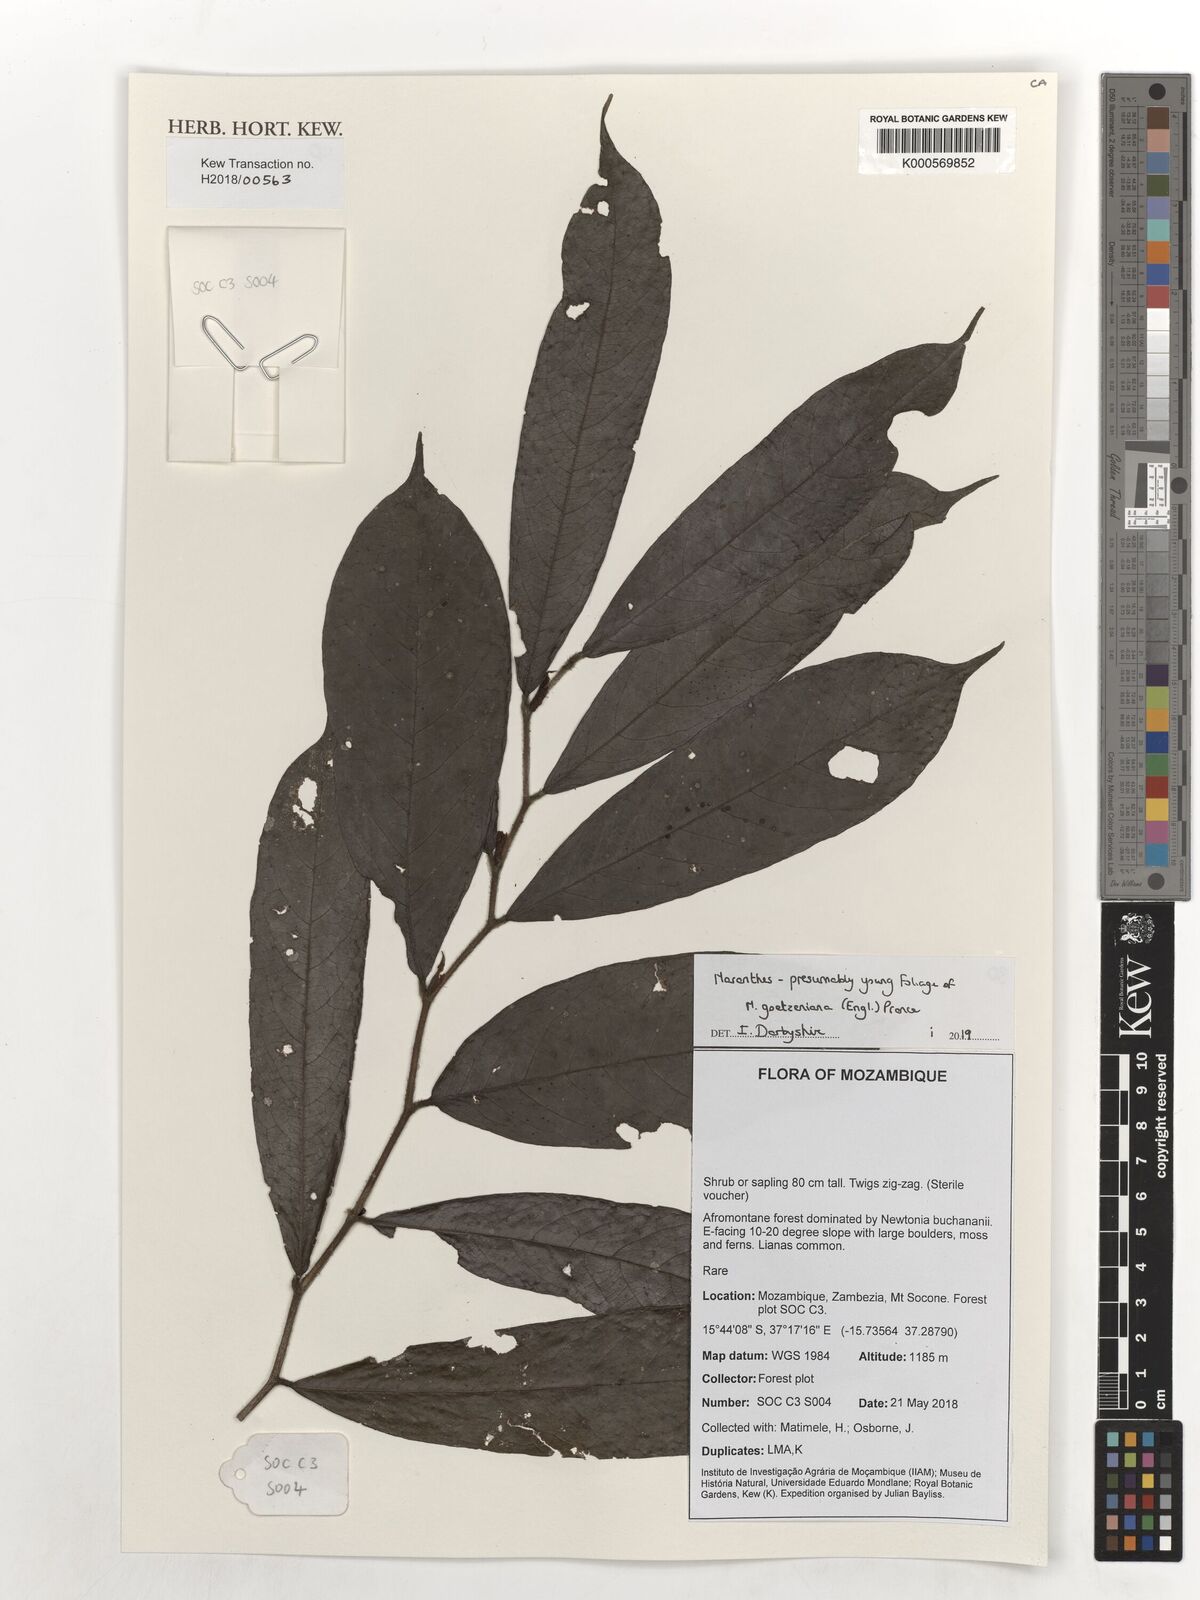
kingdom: Plantae
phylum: Tracheophyta
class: Magnoliopsida
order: Malpighiales
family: Chrysobalanaceae
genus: Maranthes
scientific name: Maranthes goetzeniana
